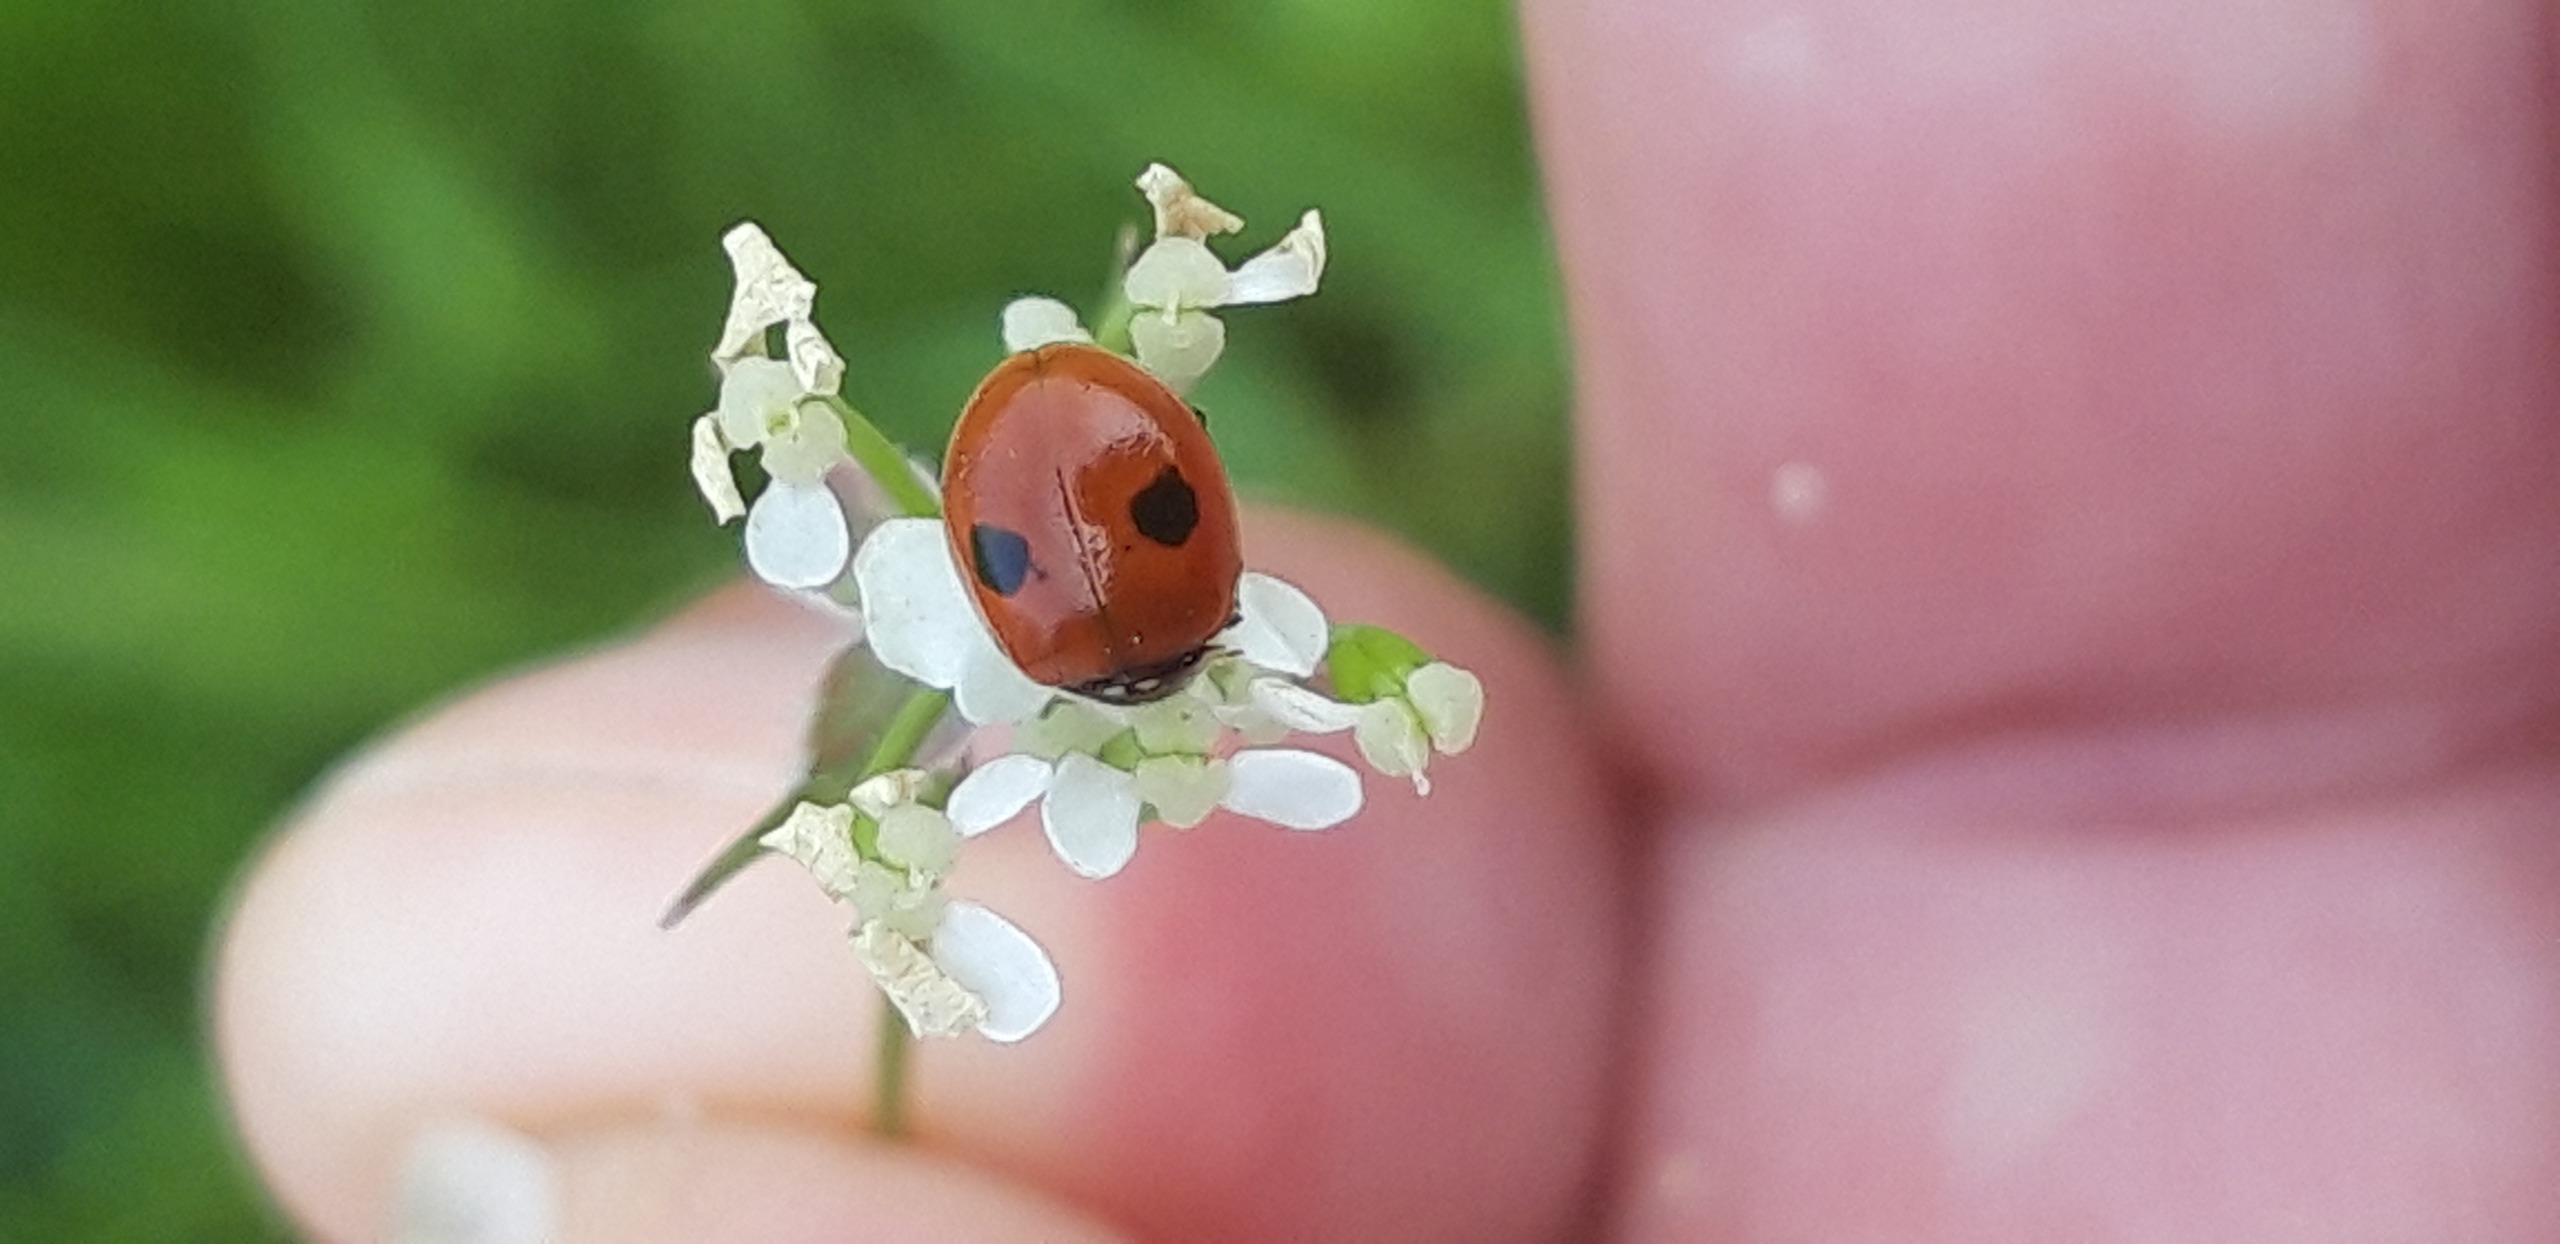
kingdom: Animalia
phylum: Arthropoda
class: Insecta
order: Coleoptera
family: Coccinellidae
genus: Adalia
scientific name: Adalia bipunctata
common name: Toplettet mariehøne
